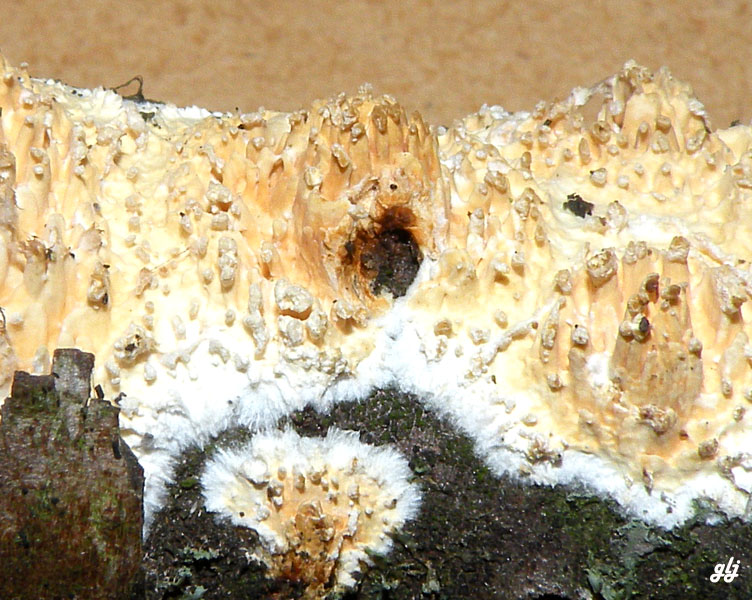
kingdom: Fungi
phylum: Basidiomycota
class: Agaricomycetes
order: Hymenochaetales
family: Schizoporaceae
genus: Xylodon
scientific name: Xylodon radula
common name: grovtandet kalkskind
